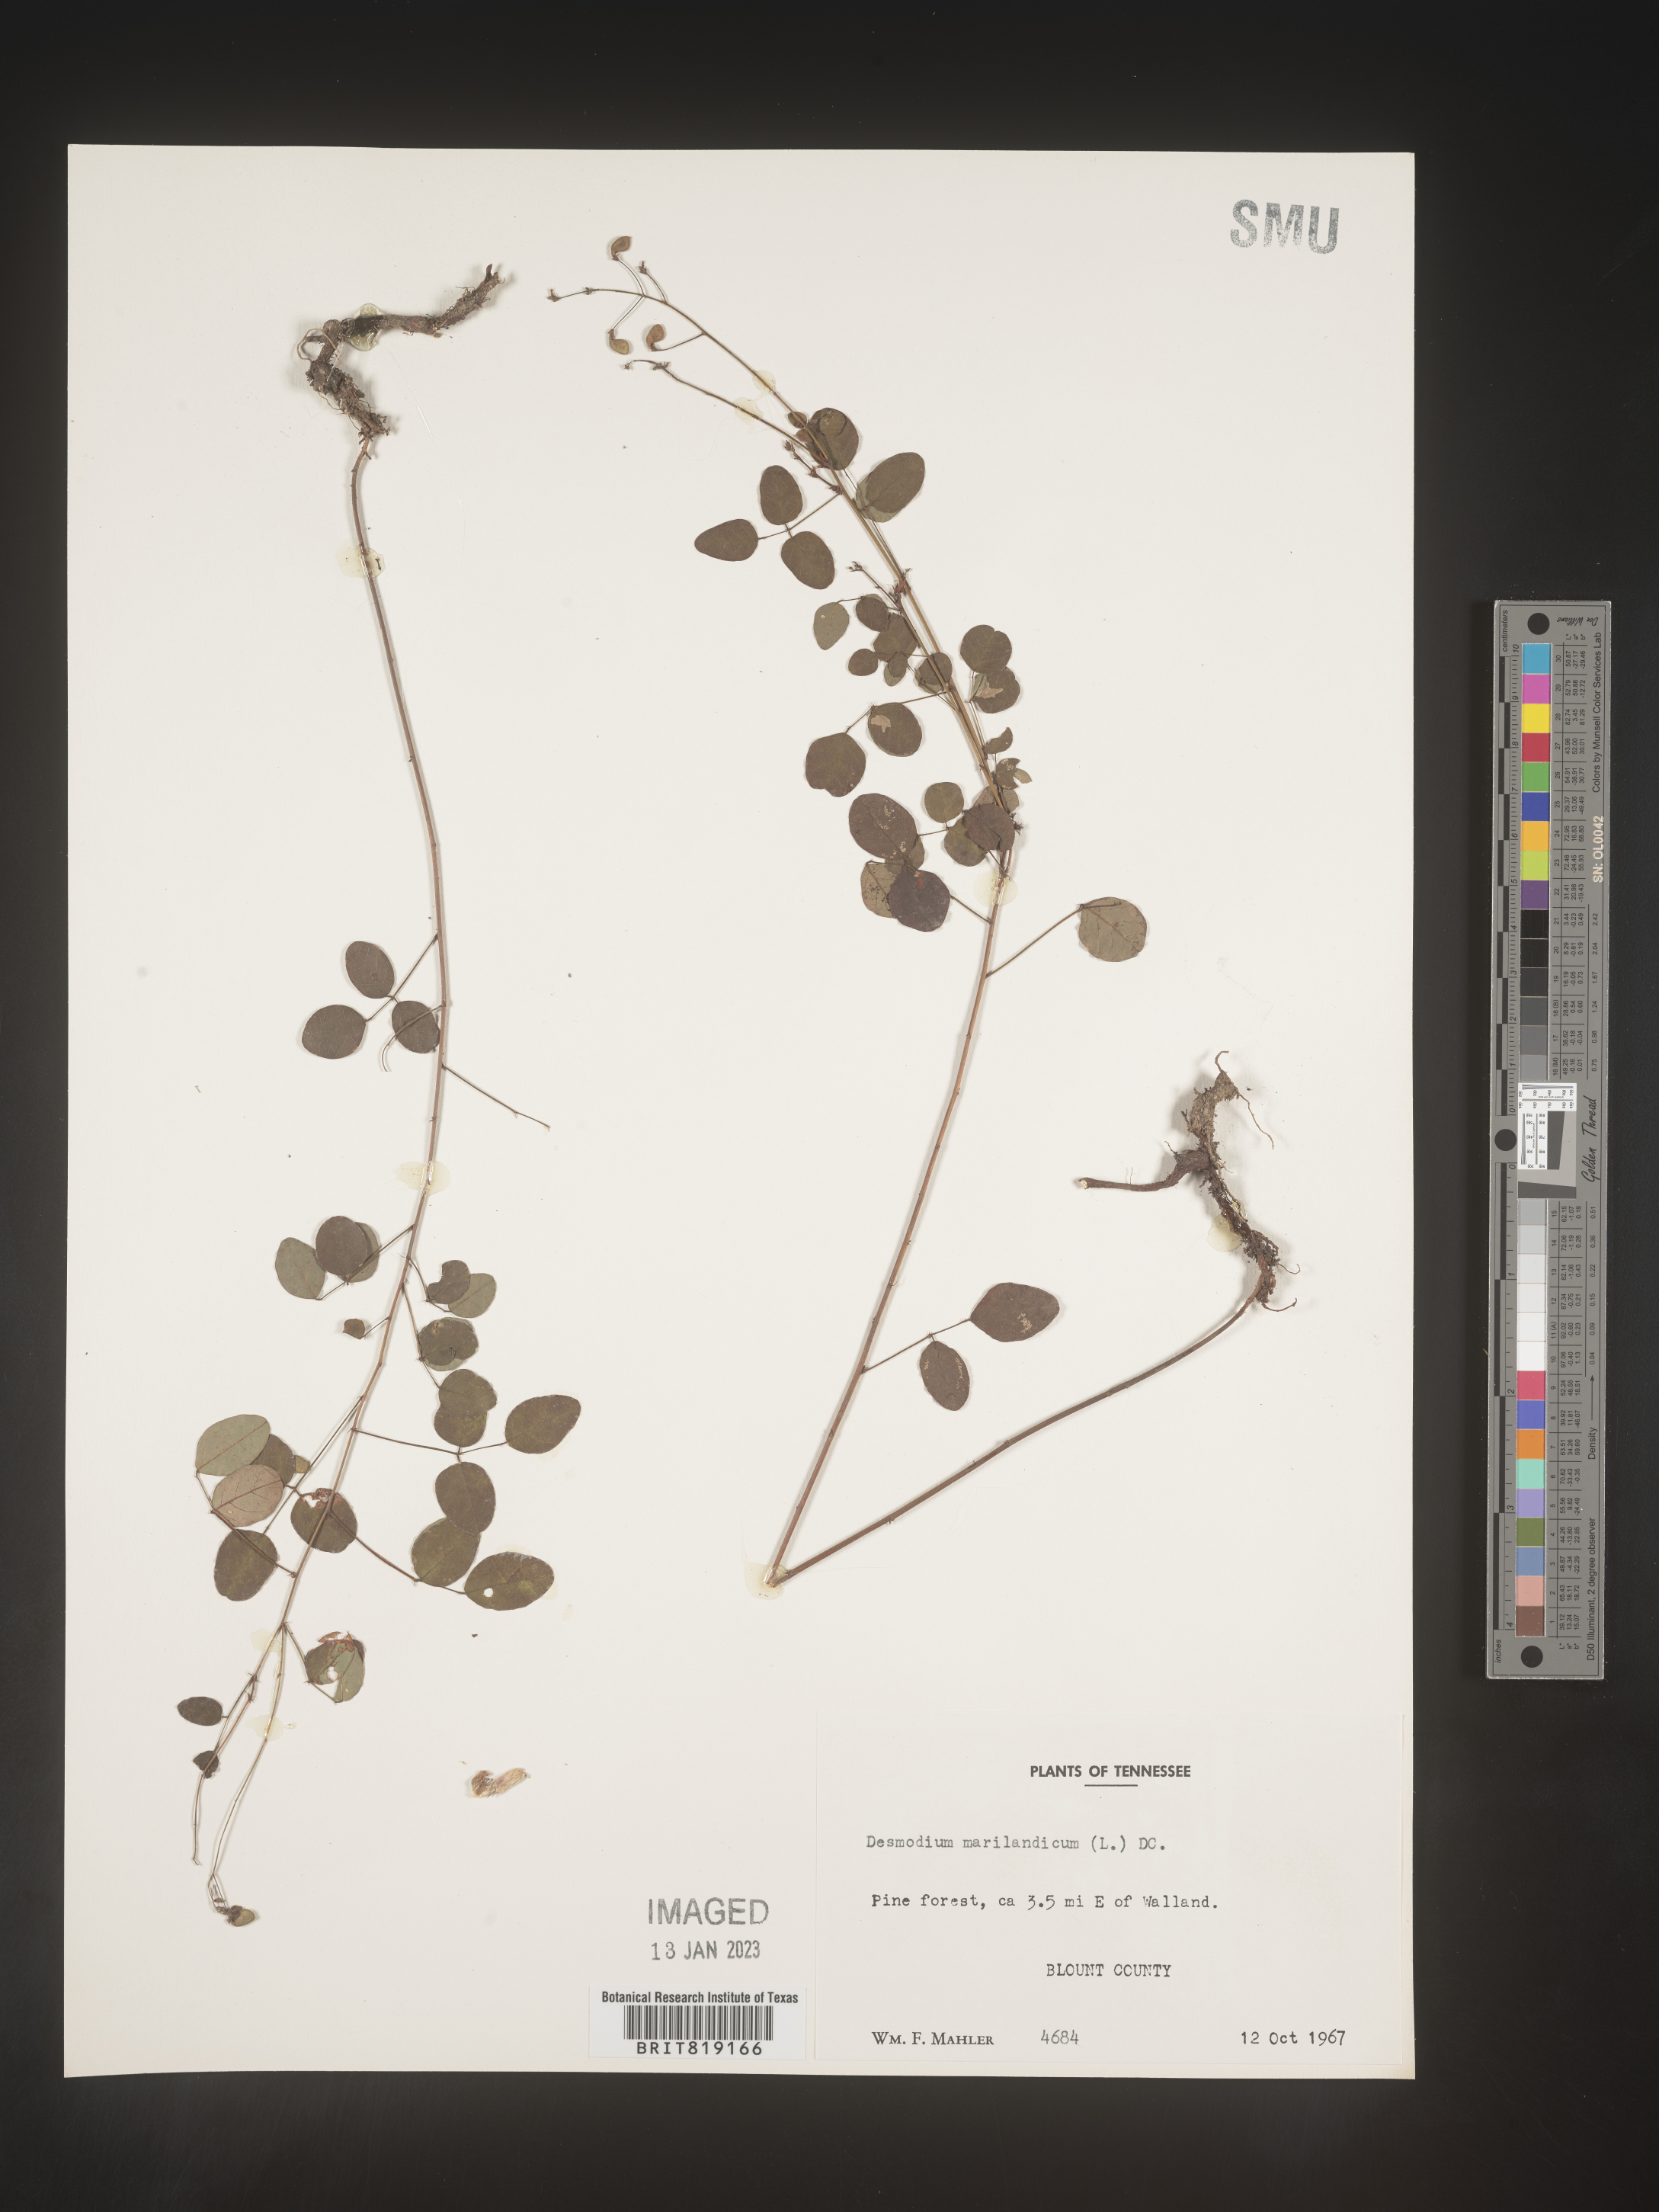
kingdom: Plantae
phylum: Tracheophyta
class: Magnoliopsida
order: Fabales
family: Fabaceae
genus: Desmodium
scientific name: Desmodium marilandicum
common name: Maryland tick-trefoil
